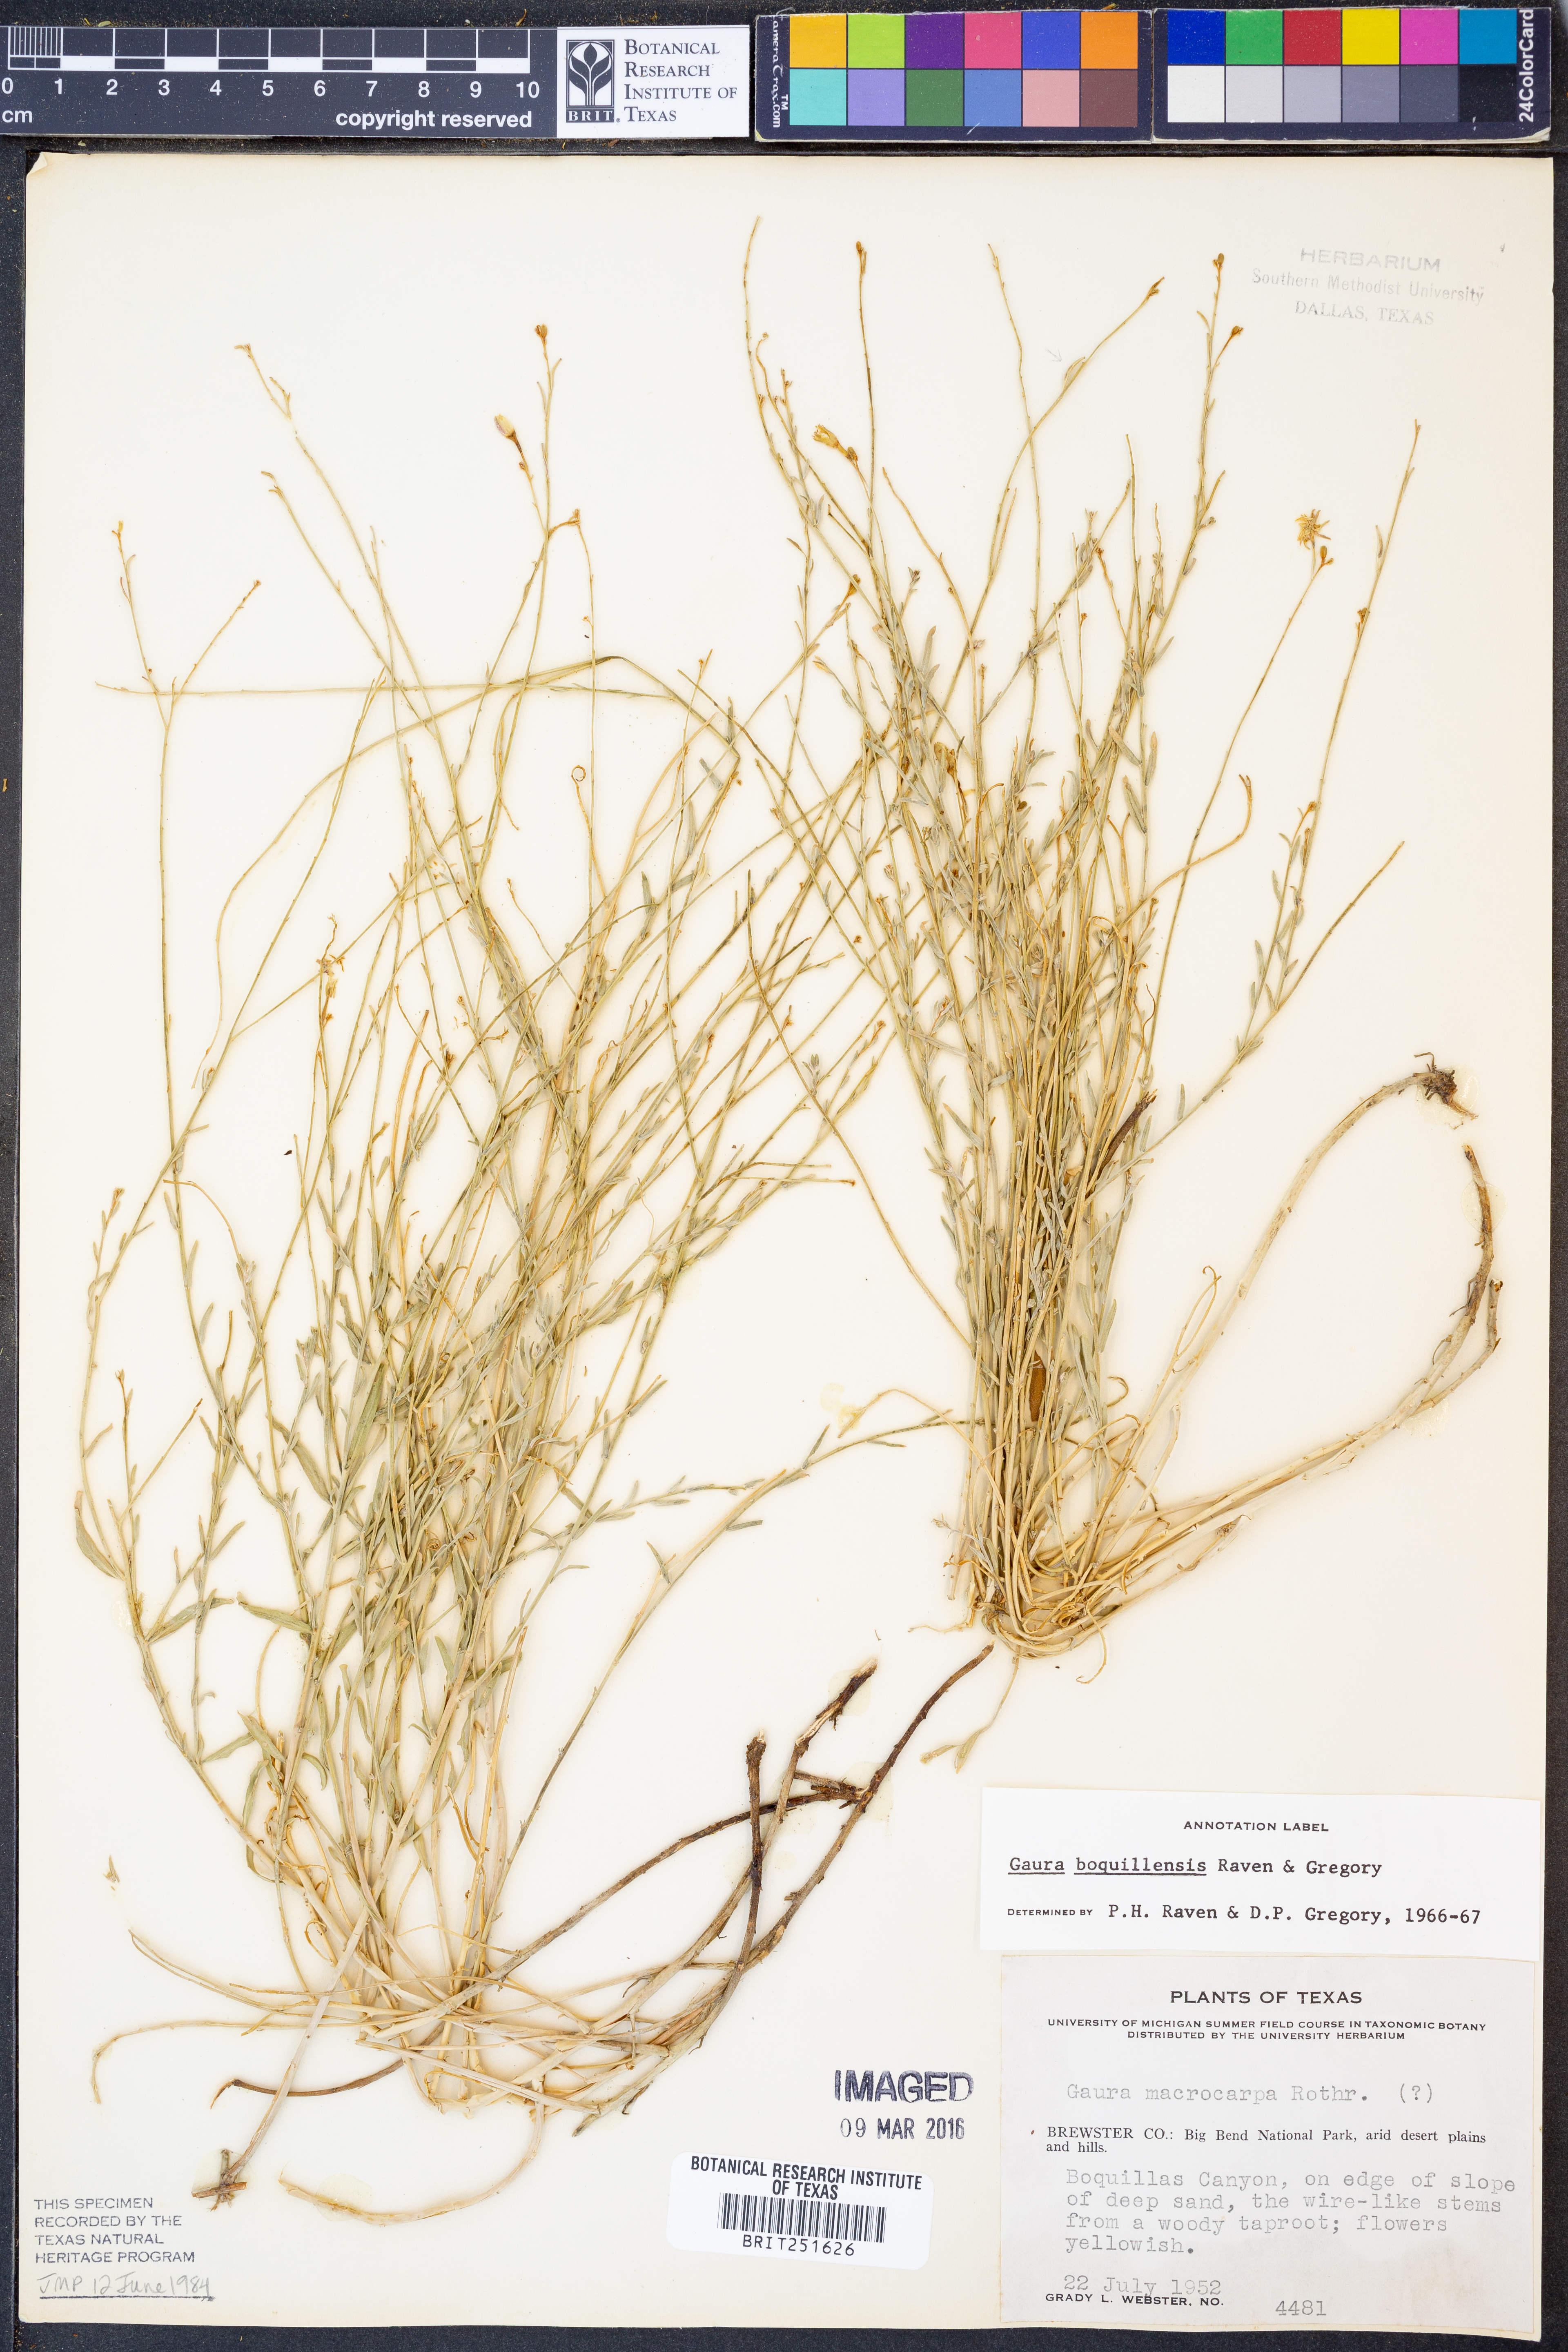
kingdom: Plantae
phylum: Tracheophyta
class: Magnoliopsida
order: Myrtales
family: Onagraceae
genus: Oenothera
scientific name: Oenothera boquillensis
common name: Rio grande beeblossom
